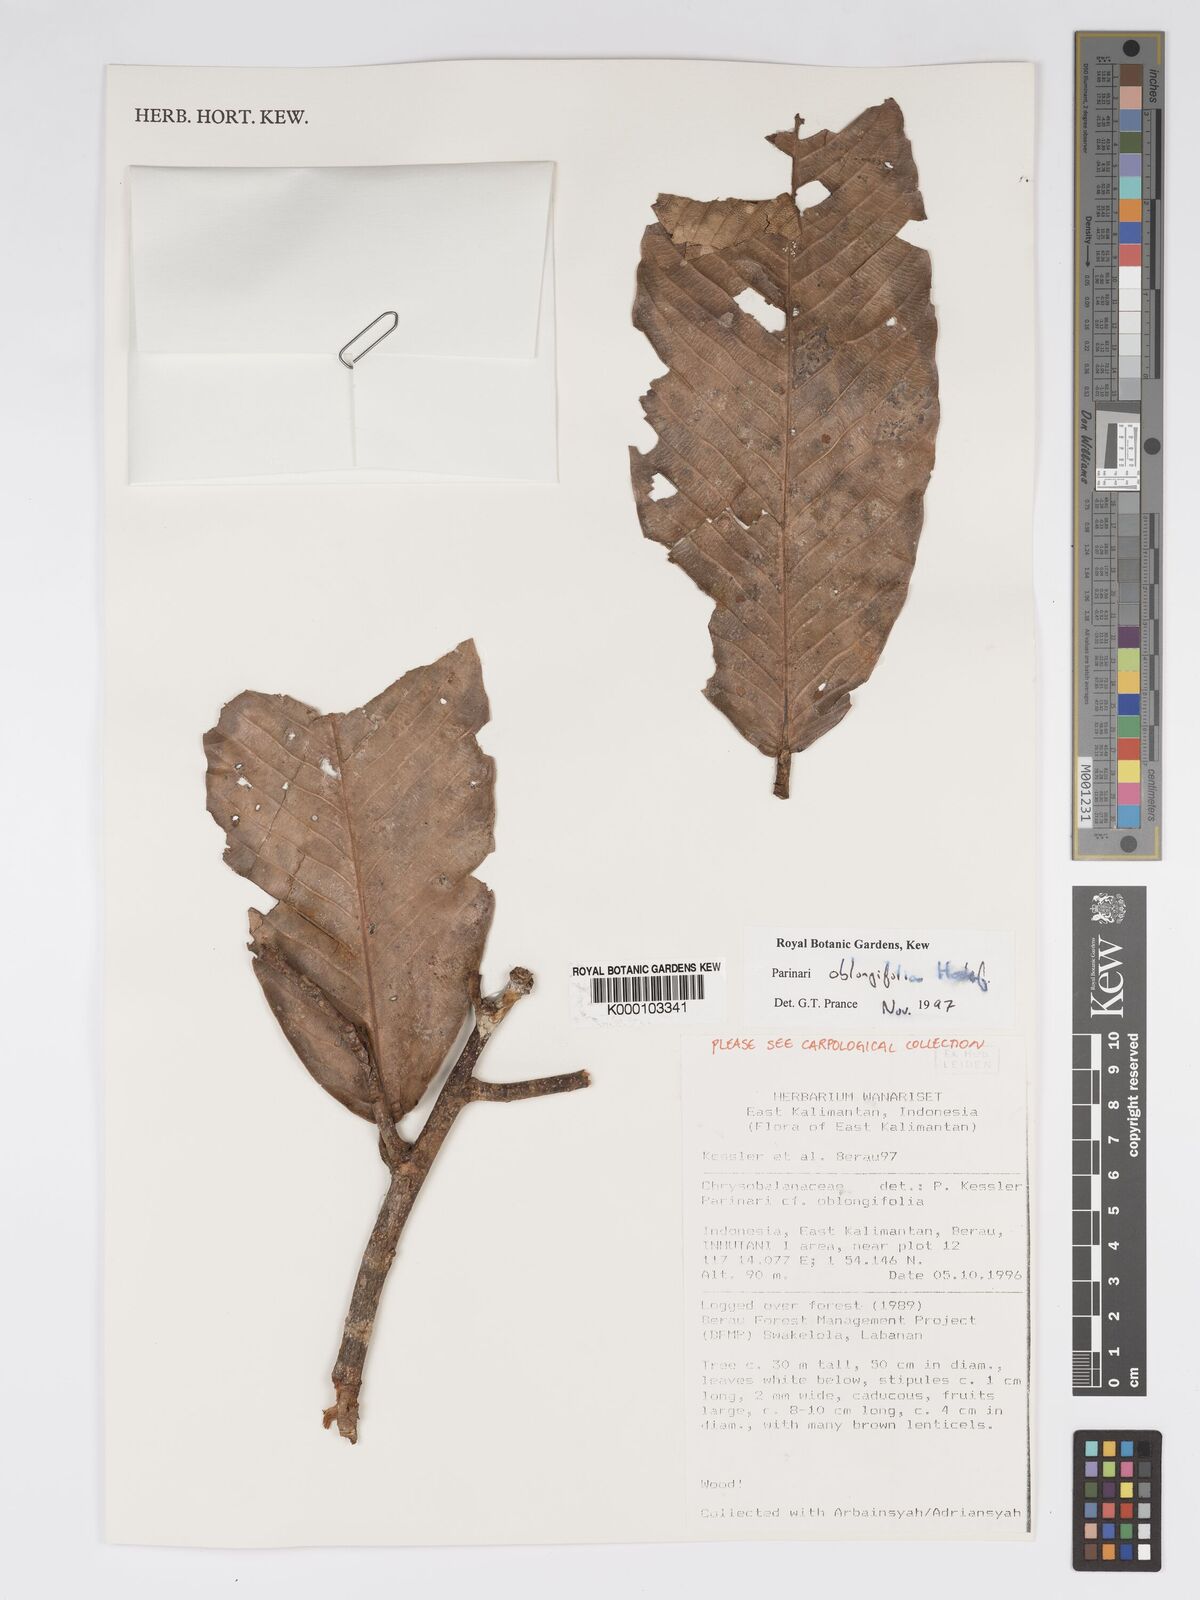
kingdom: Plantae
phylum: Tracheophyta
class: Magnoliopsida
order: Malpighiales
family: Chrysobalanaceae
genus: Parinari
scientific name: Parinari oblongifolia
